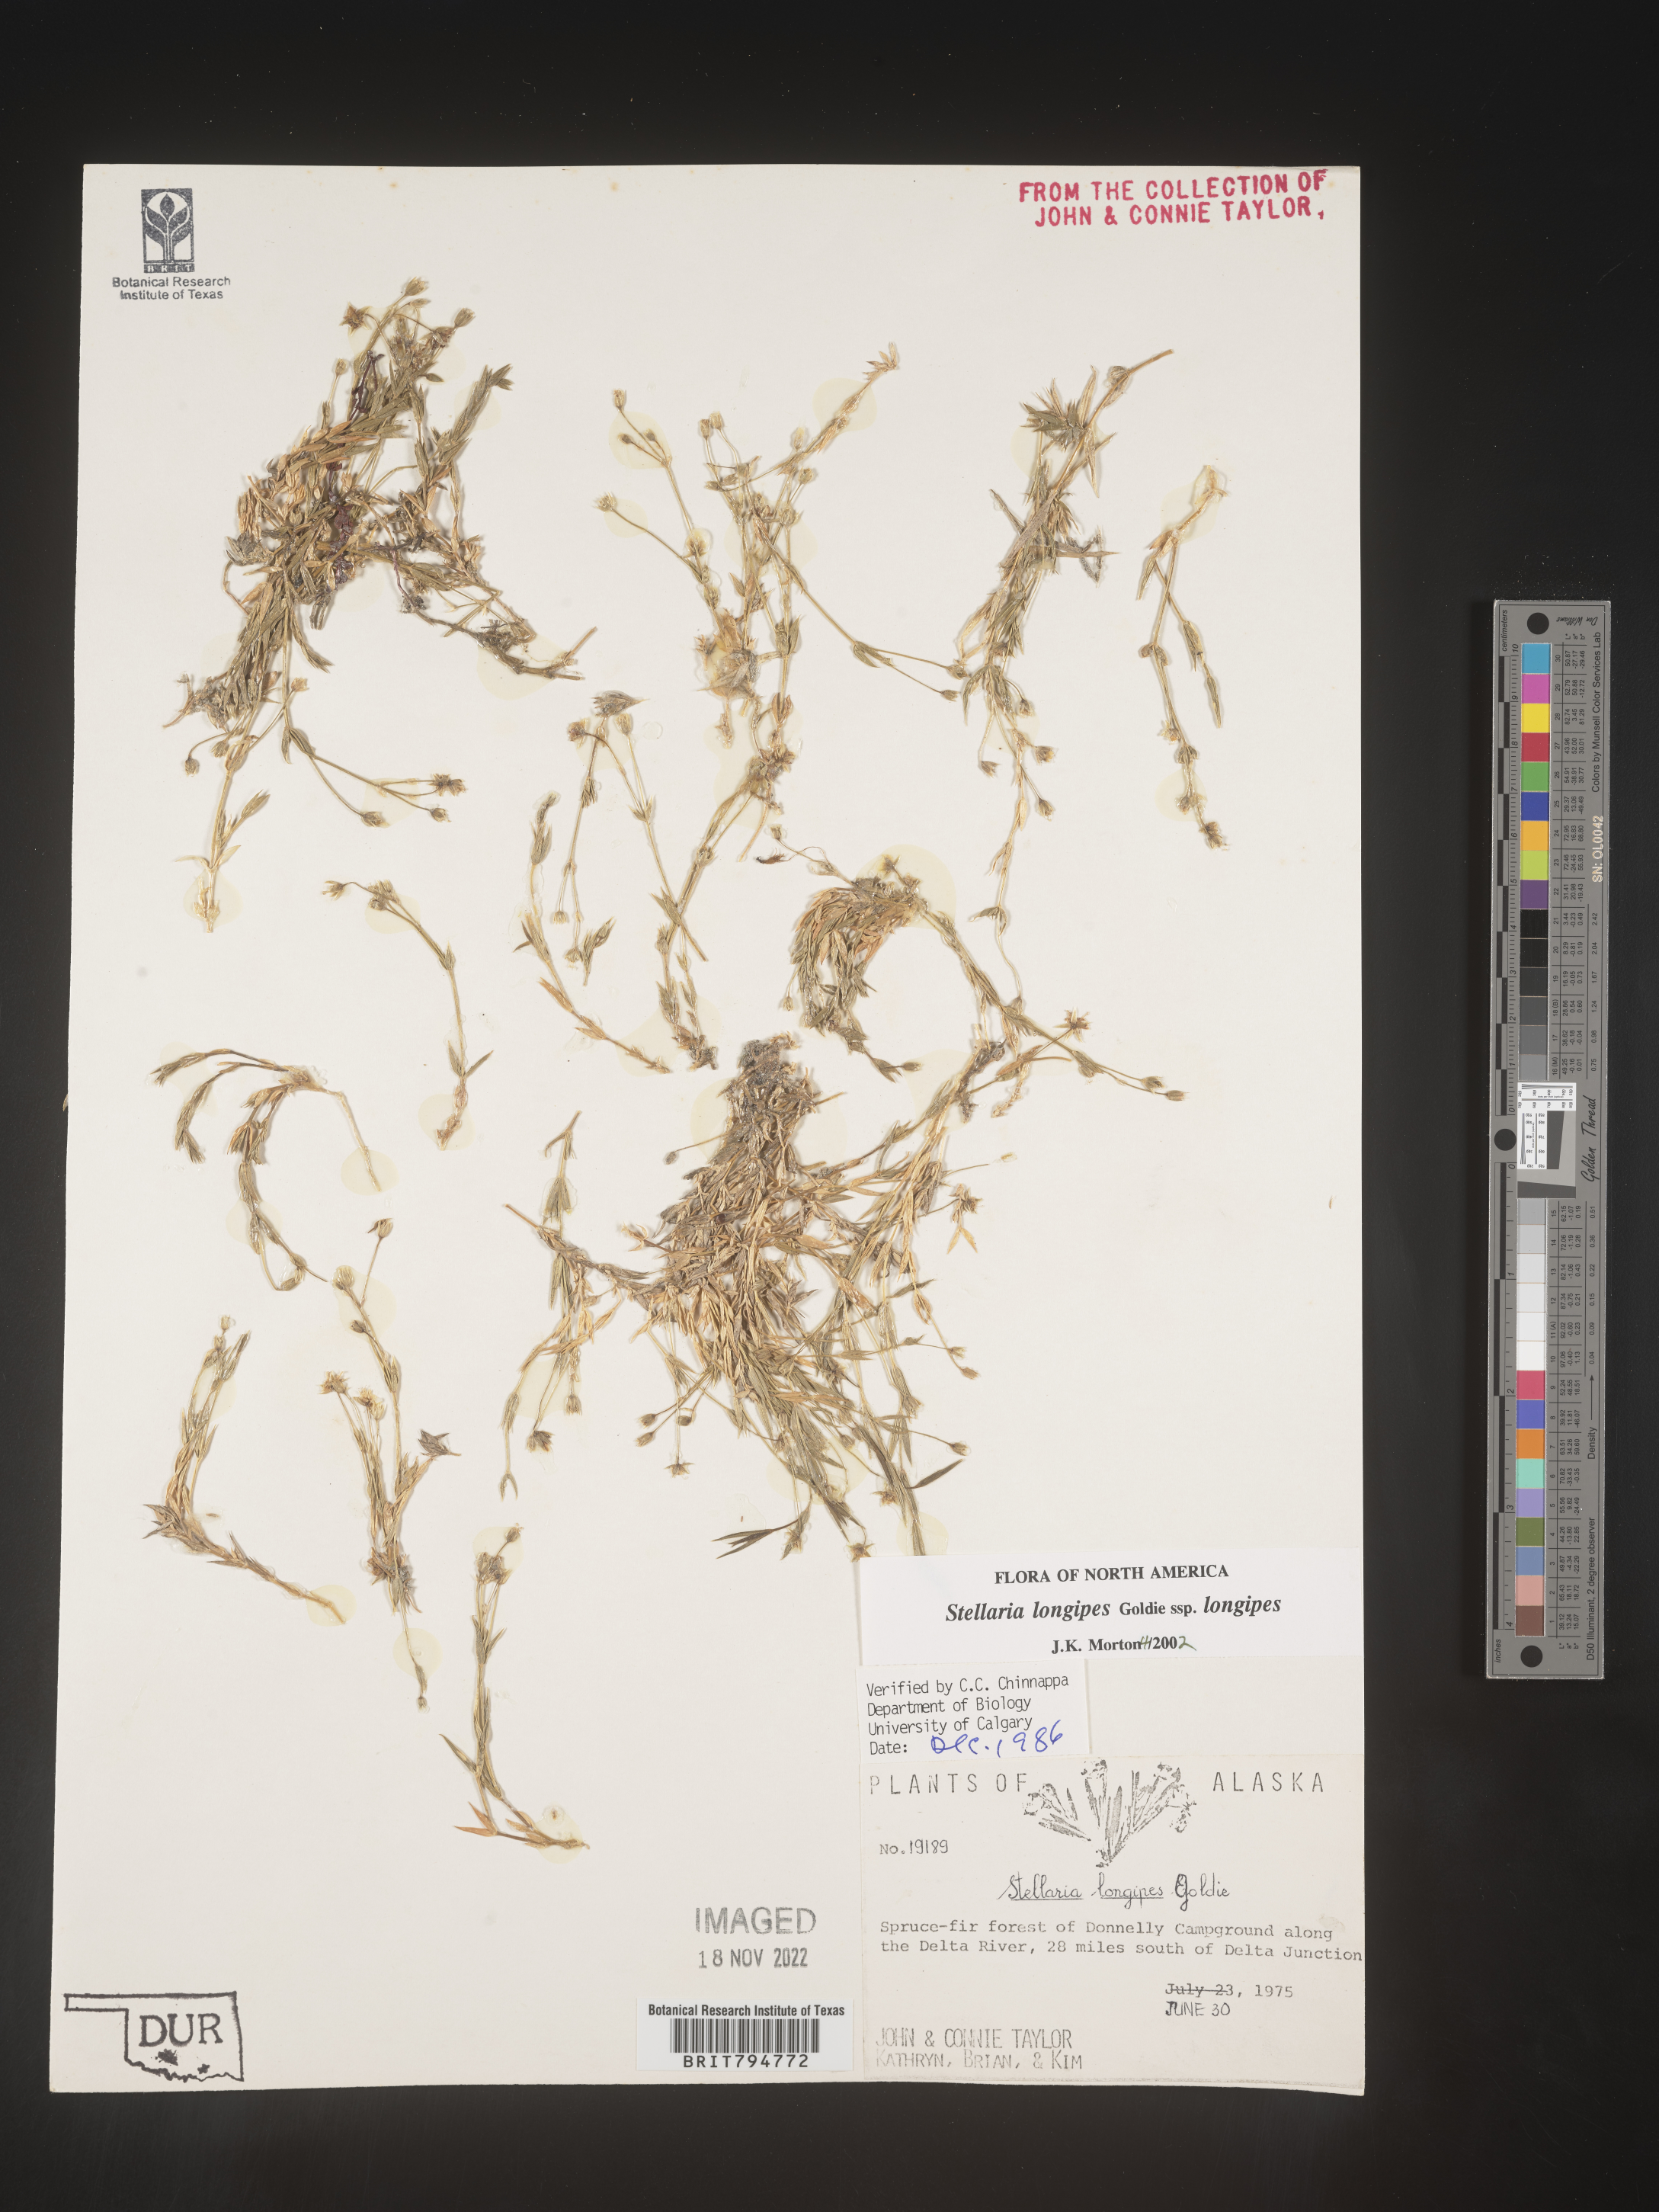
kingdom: Plantae
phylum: Tracheophyta
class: Magnoliopsida
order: Caryophyllales
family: Caryophyllaceae
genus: Stellaria
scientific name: Stellaria longipes
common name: Goldie's starwort
